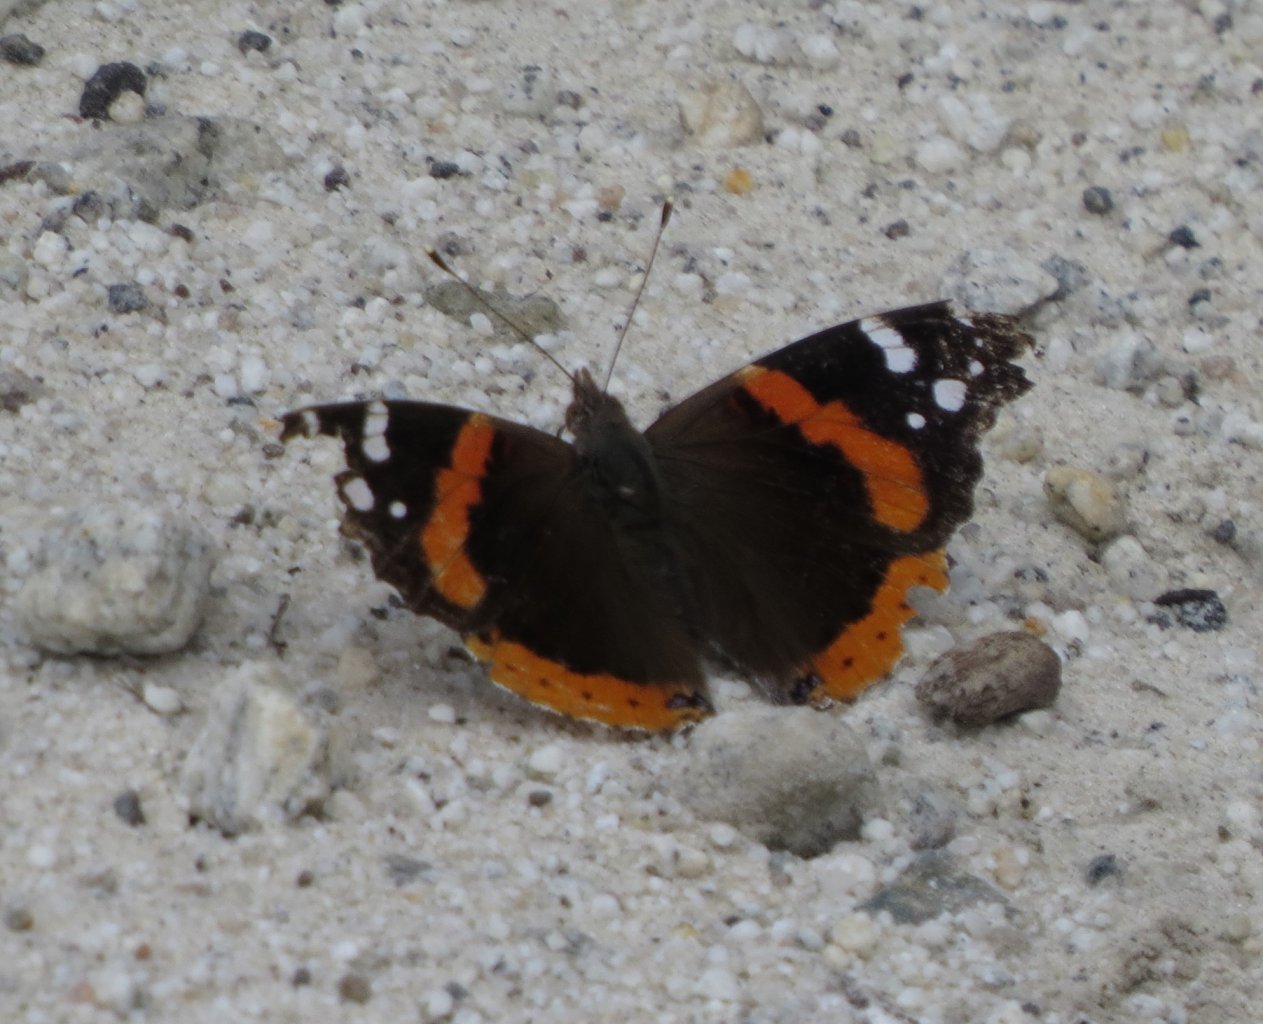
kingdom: Animalia
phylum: Arthropoda
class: Insecta
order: Lepidoptera
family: Nymphalidae
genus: Vanessa
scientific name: Vanessa atalanta
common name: Red Admiral
